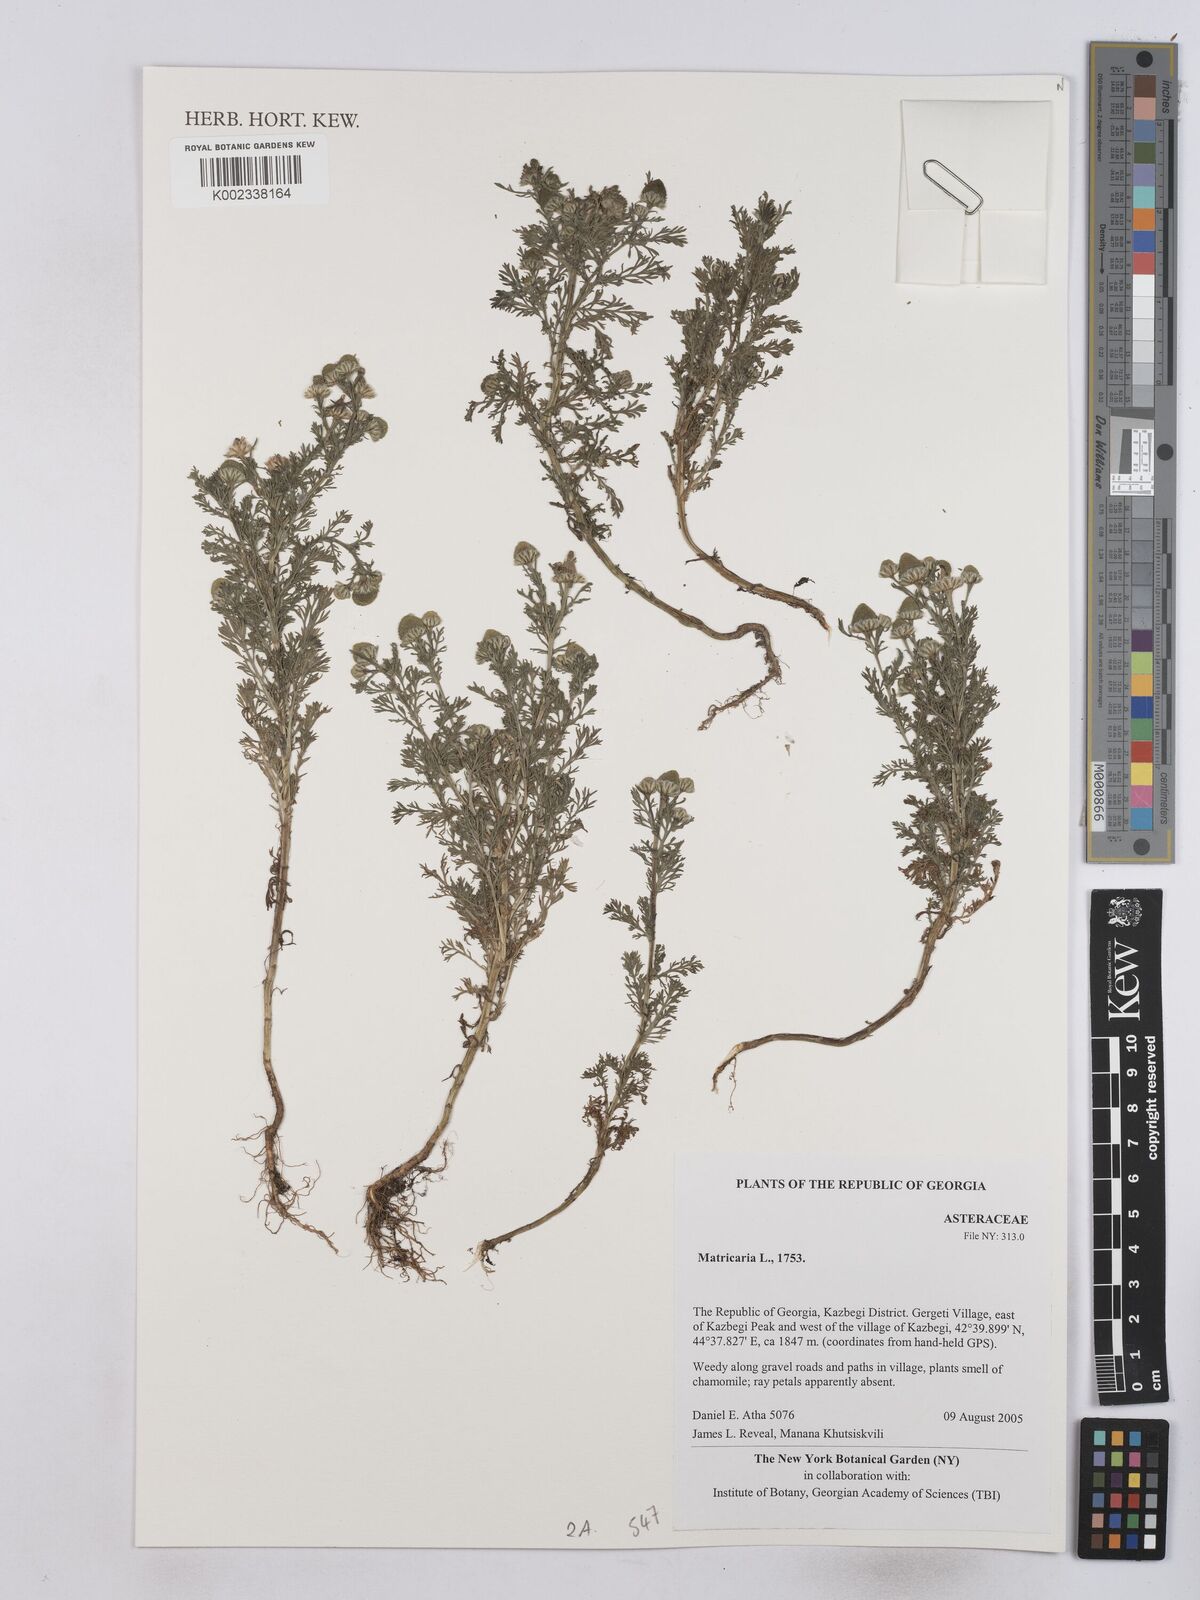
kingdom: Plantae
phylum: Tracheophyta
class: Magnoliopsida
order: Asterales
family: Asteraceae
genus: Matricaria
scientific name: Matricaria
